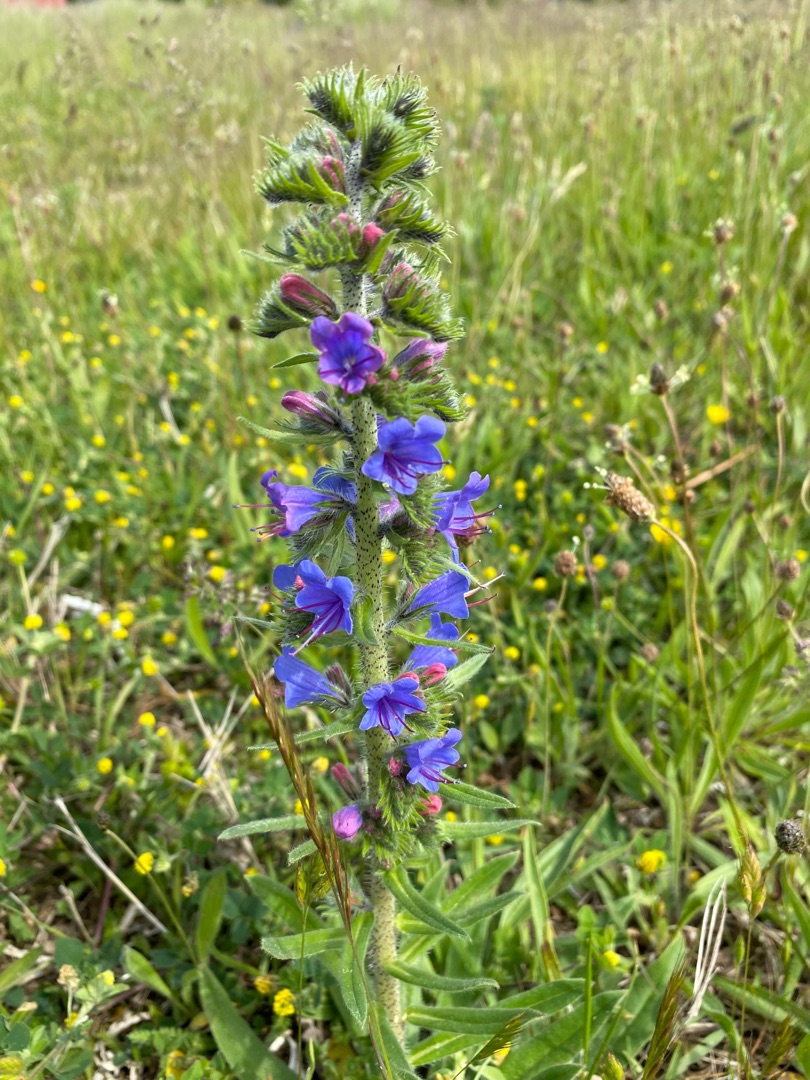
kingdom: Plantae
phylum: Tracheophyta
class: Magnoliopsida
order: Boraginales
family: Boraginaceae
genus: Echium
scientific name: Echium vulgare
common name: Slangehoved
